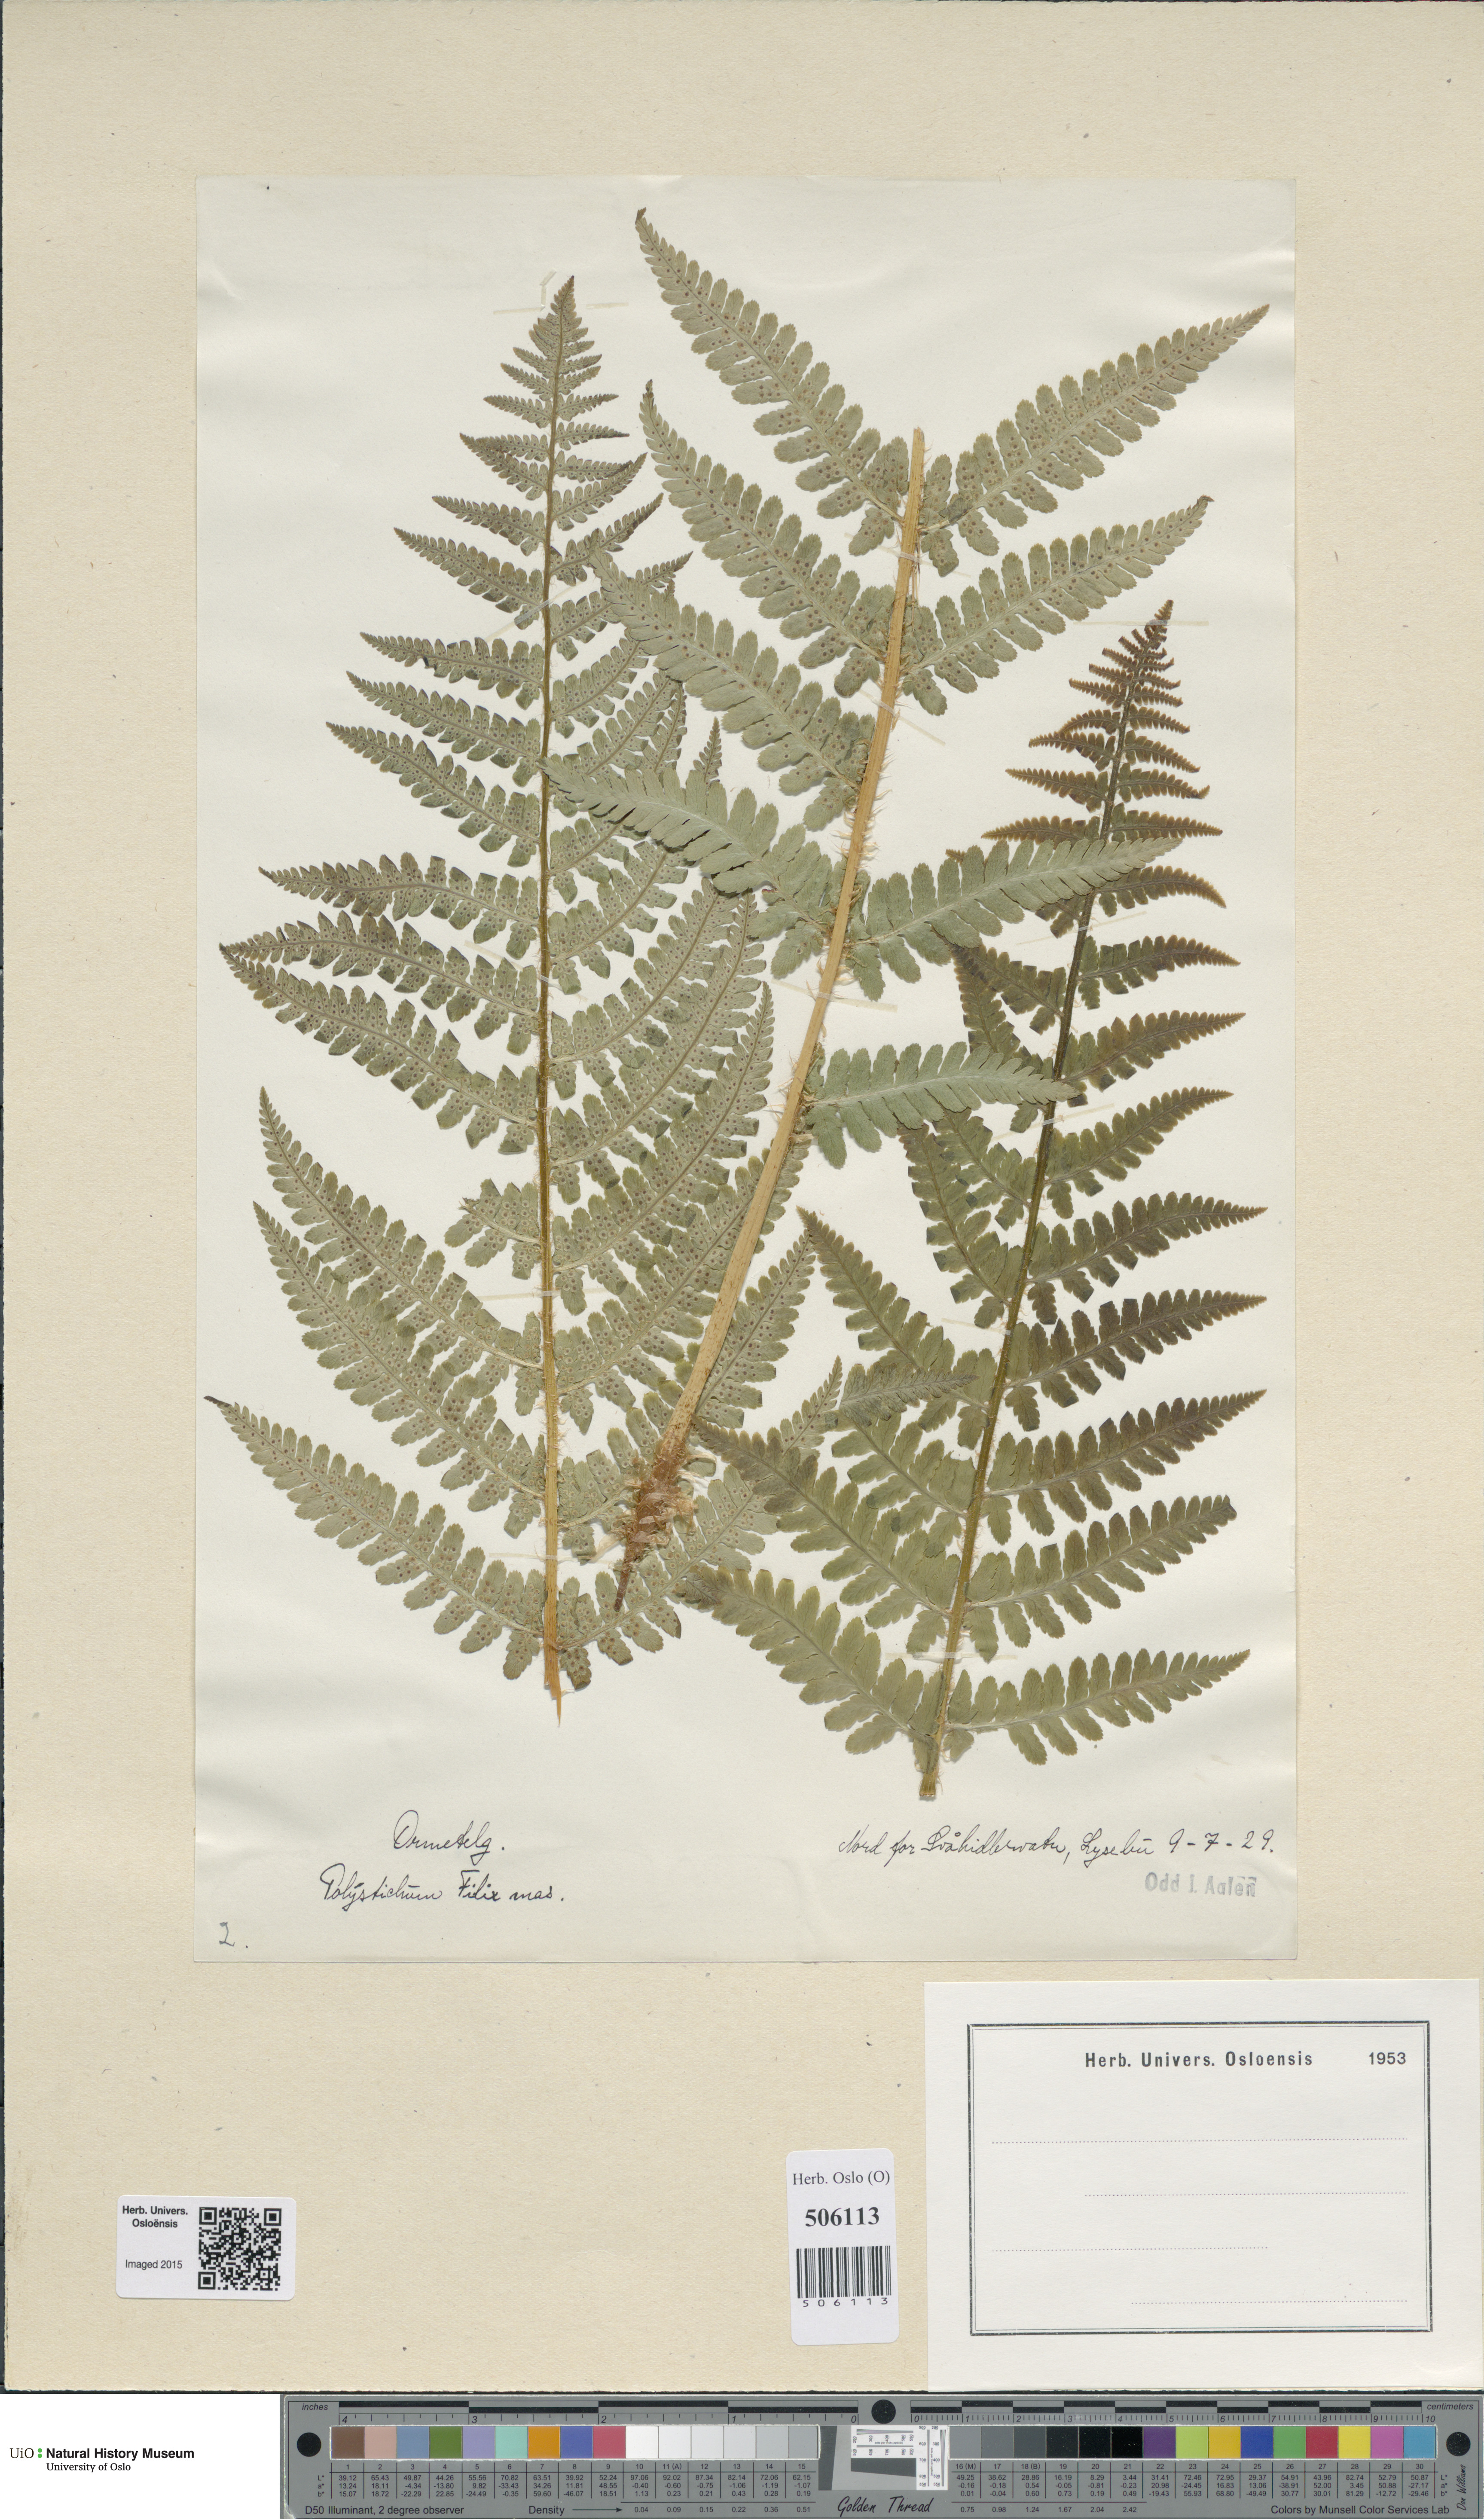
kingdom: Plantae
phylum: Tracheophyta
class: Polypodiopsida
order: Polypodiales
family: Dryopteridaceae
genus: Dryopteris
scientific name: Dryopteris filix-mas
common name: Male fern
